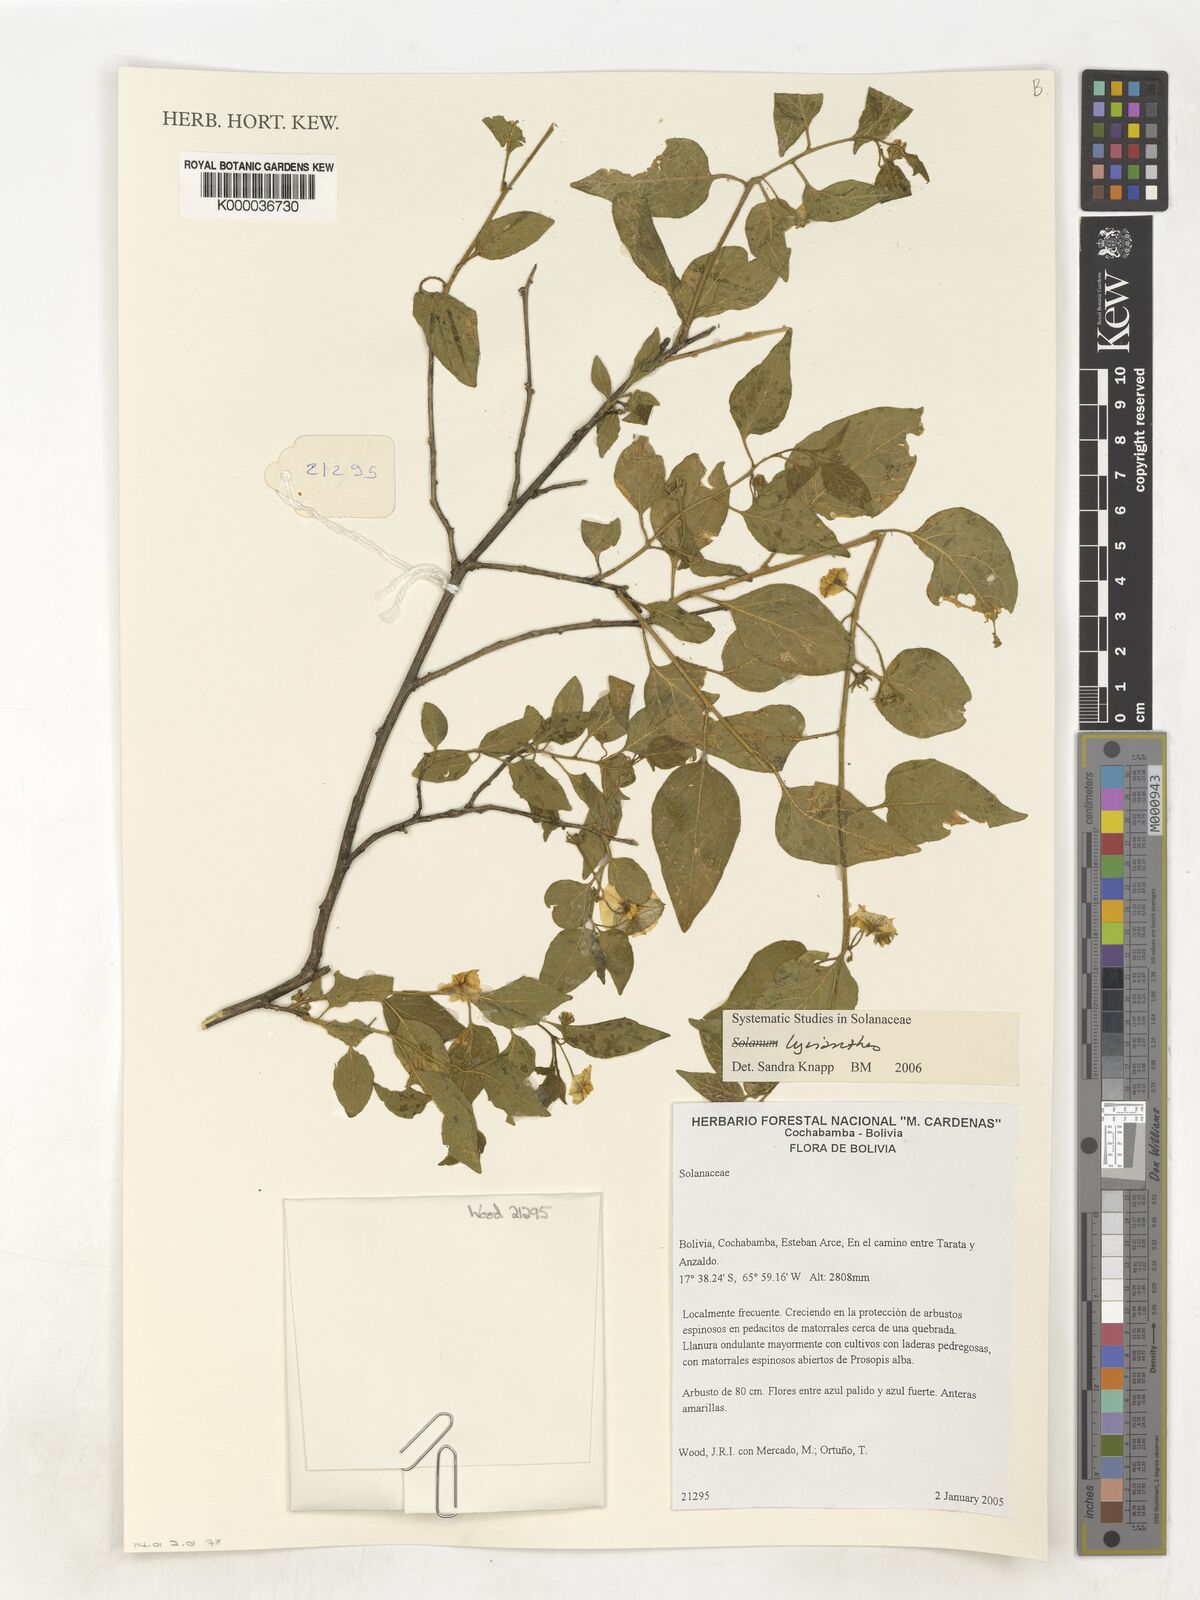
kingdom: Plantae
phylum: Tracheophyta
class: Magnoliopsida
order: Solanales
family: Solanaceae
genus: Lycianthes
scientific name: Lycianthes
